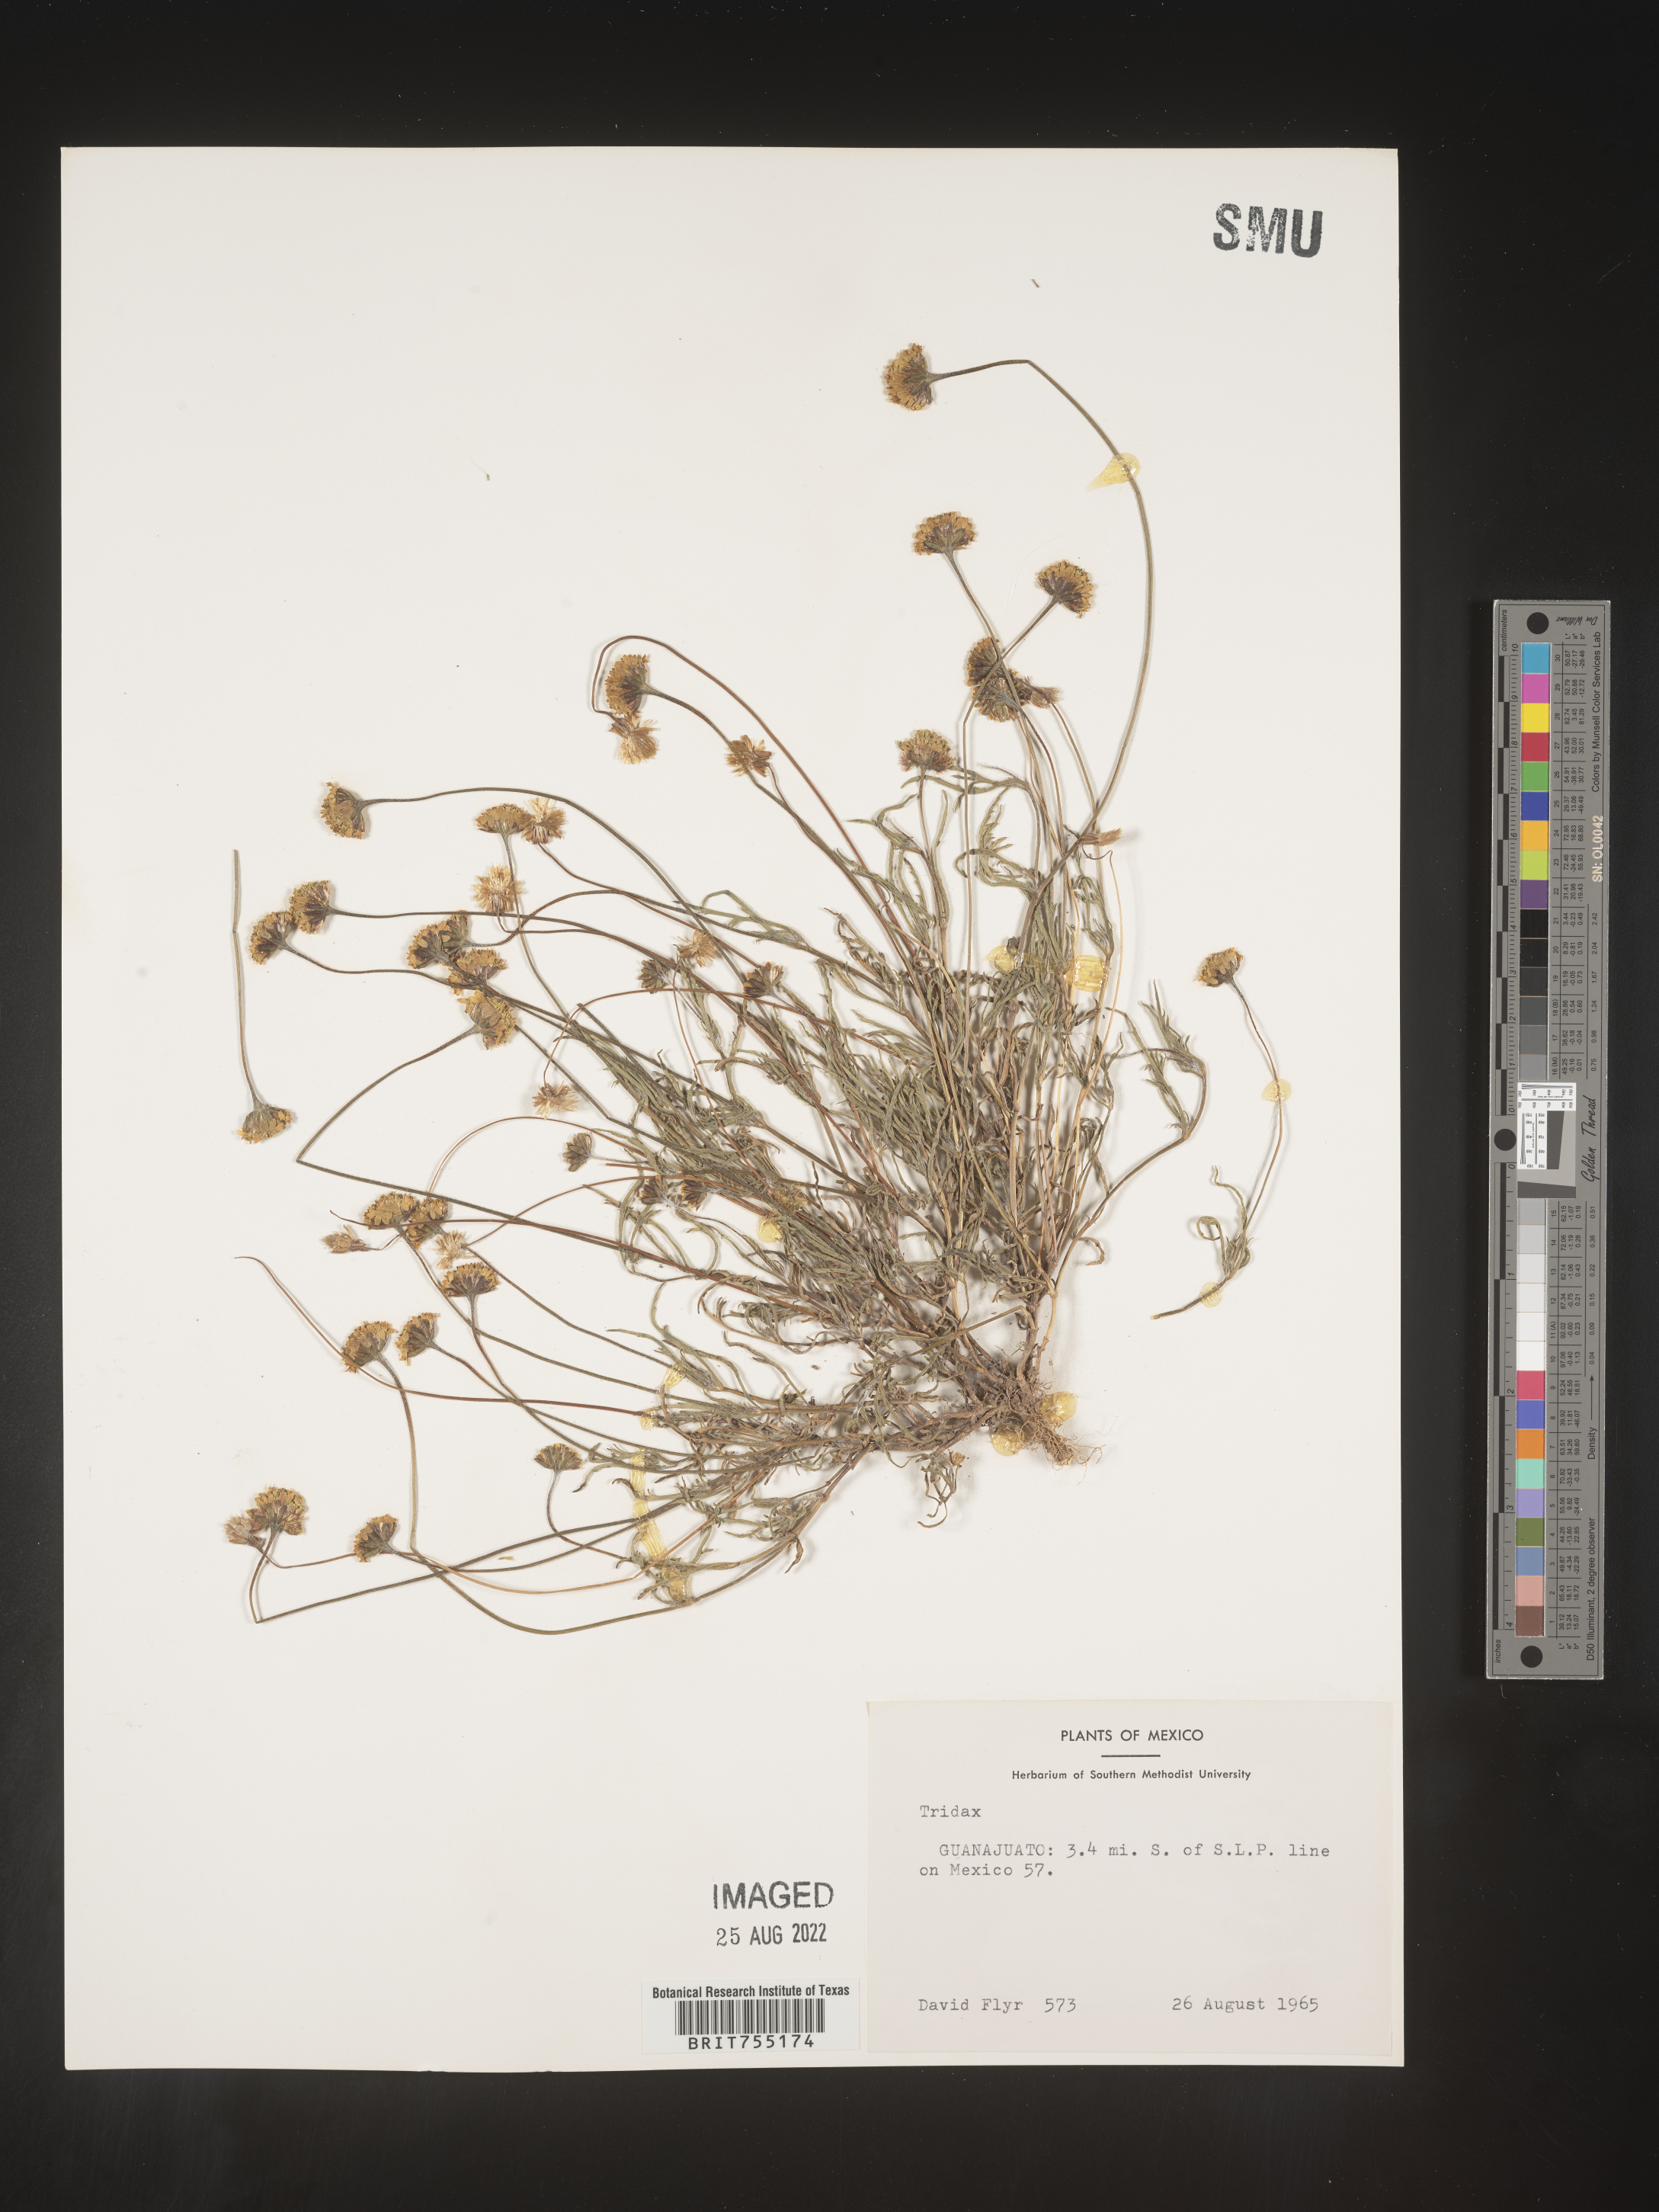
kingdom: Plantae
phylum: Tracheophyta
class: Magnoliopsida
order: Asterales
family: Asteraceae
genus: Tagetes
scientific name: Tagetes
